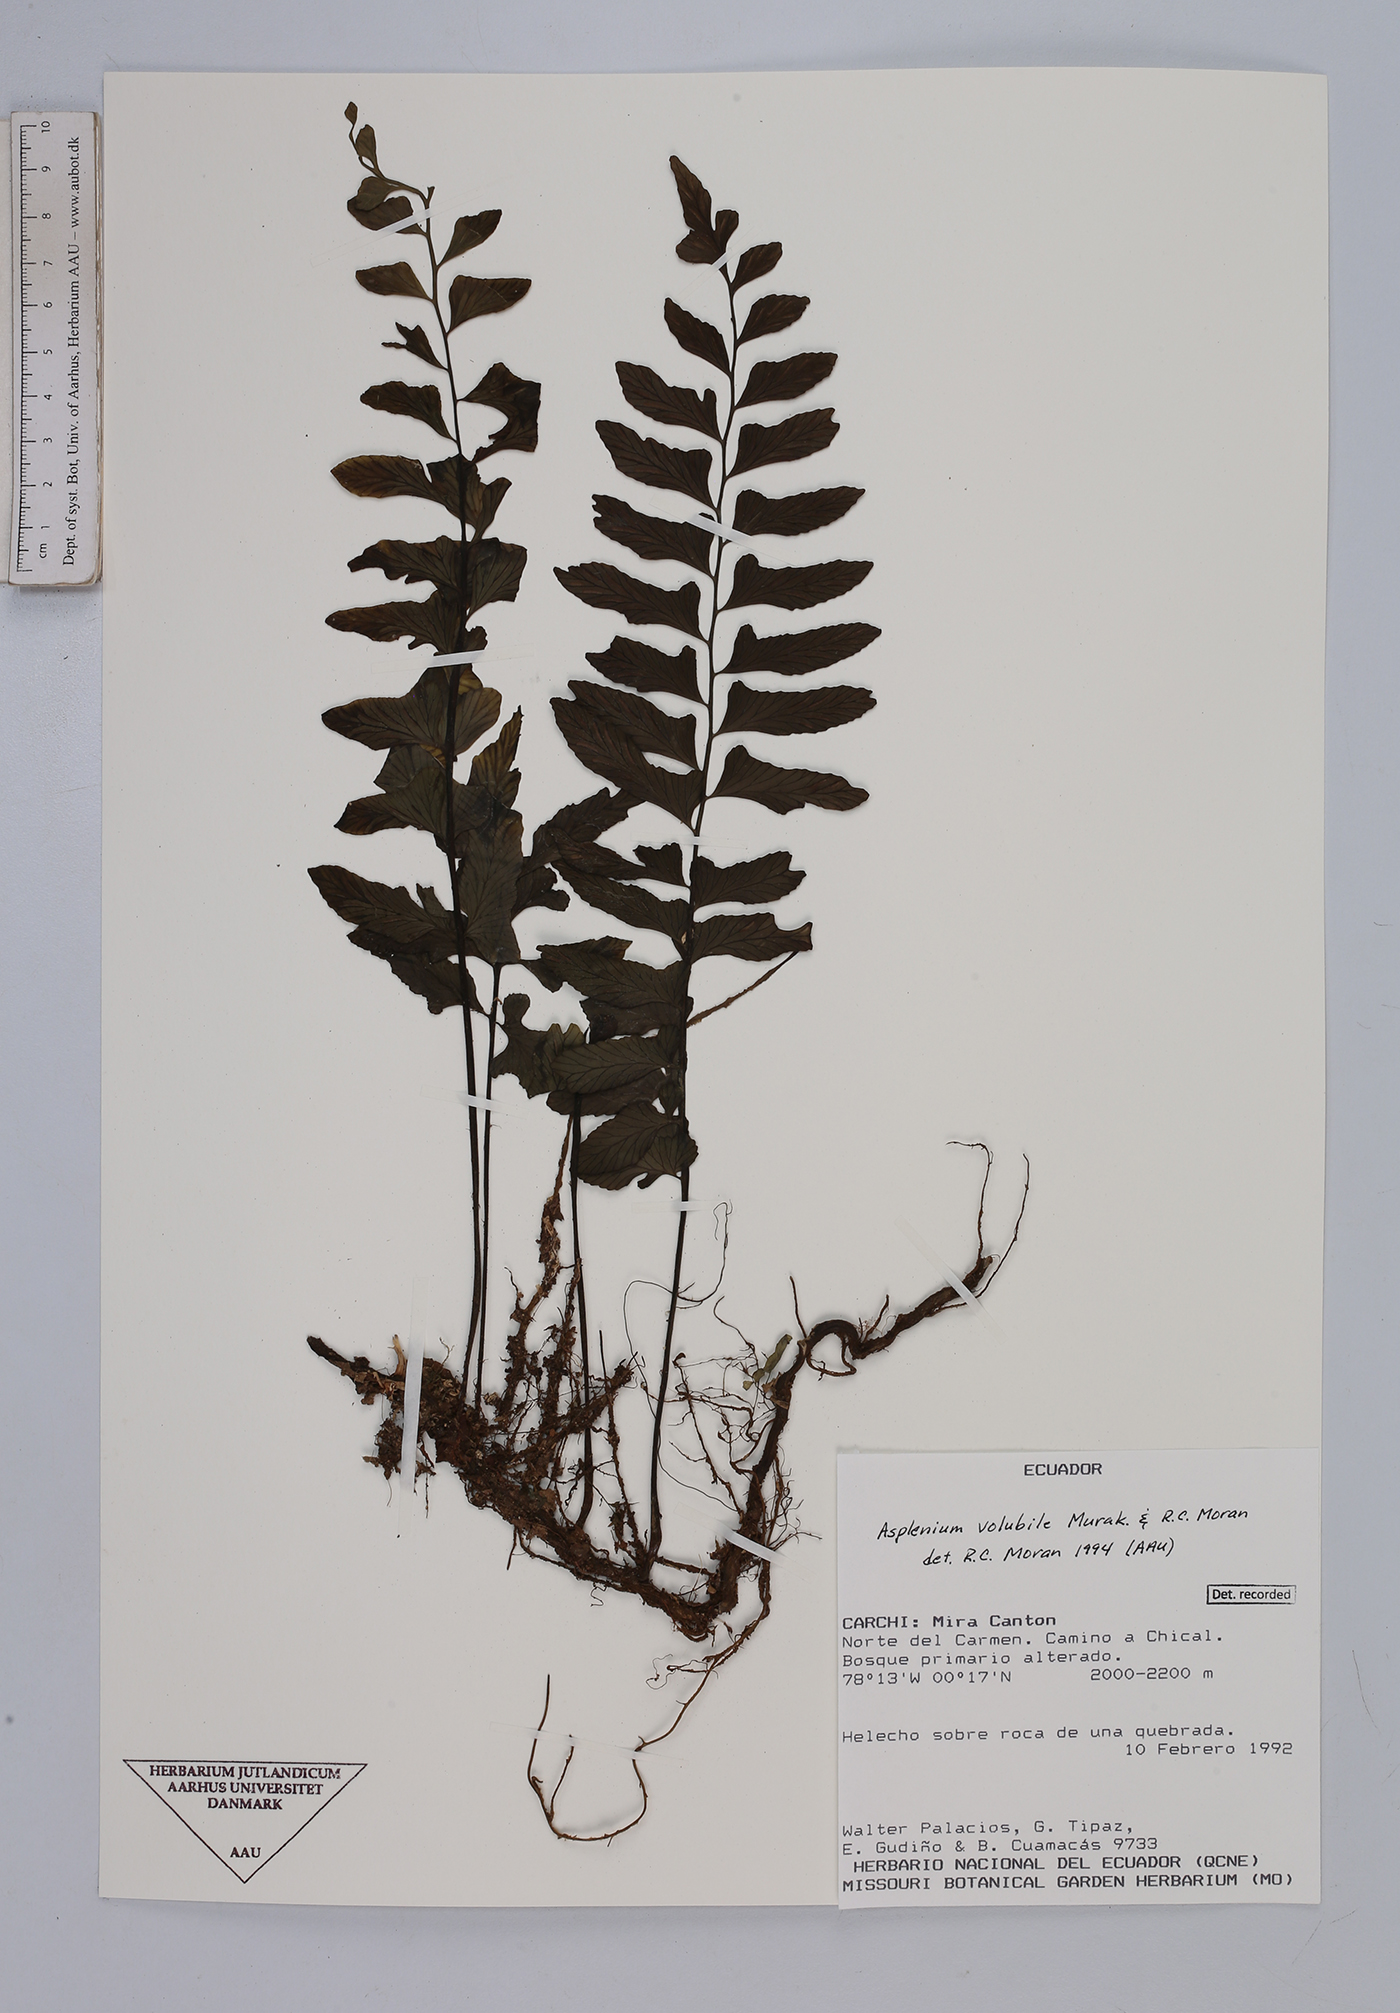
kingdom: Plantae
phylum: Tracheophyta
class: Polypodiopsida
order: Polypodiales
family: Aspleniaceae
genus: Hymenasplenium
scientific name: Hymenasplenium volubile
